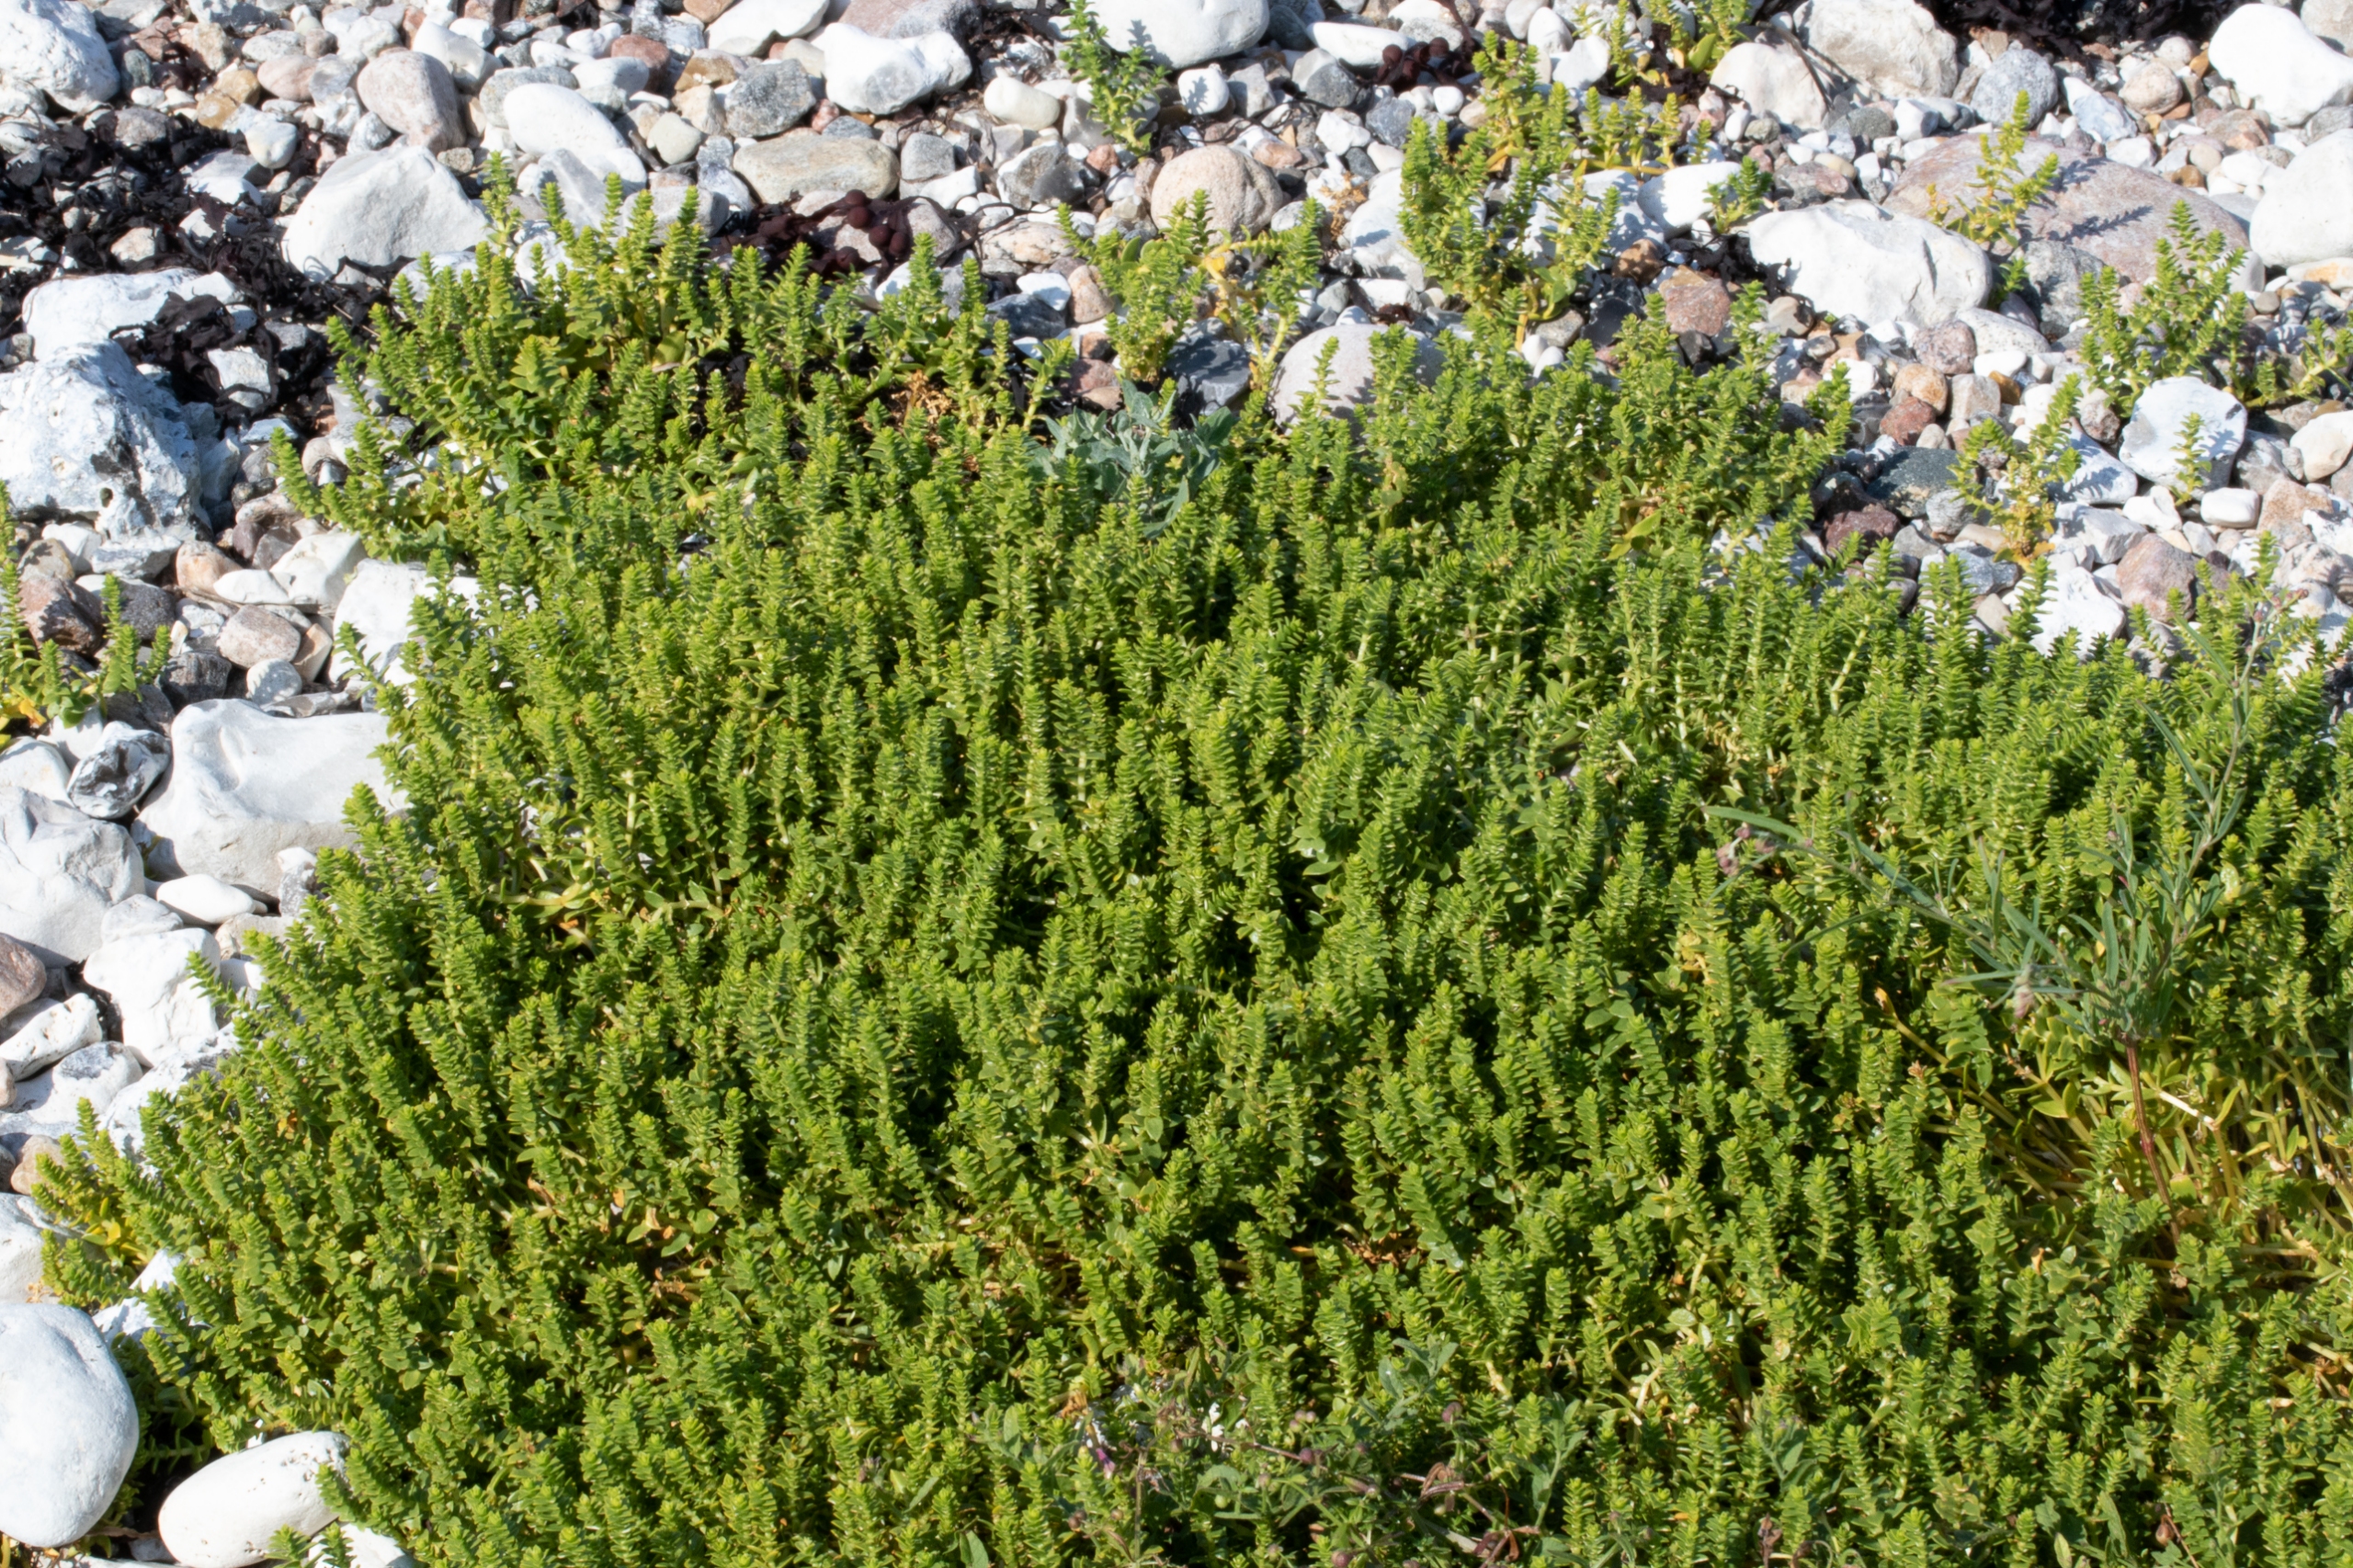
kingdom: Plantae
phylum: Tracheophyta
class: Magnoliopsida
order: Caryophyllales
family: Caryophyllaceae
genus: Honckenya
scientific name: Honckenya peploides
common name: Strandarve
